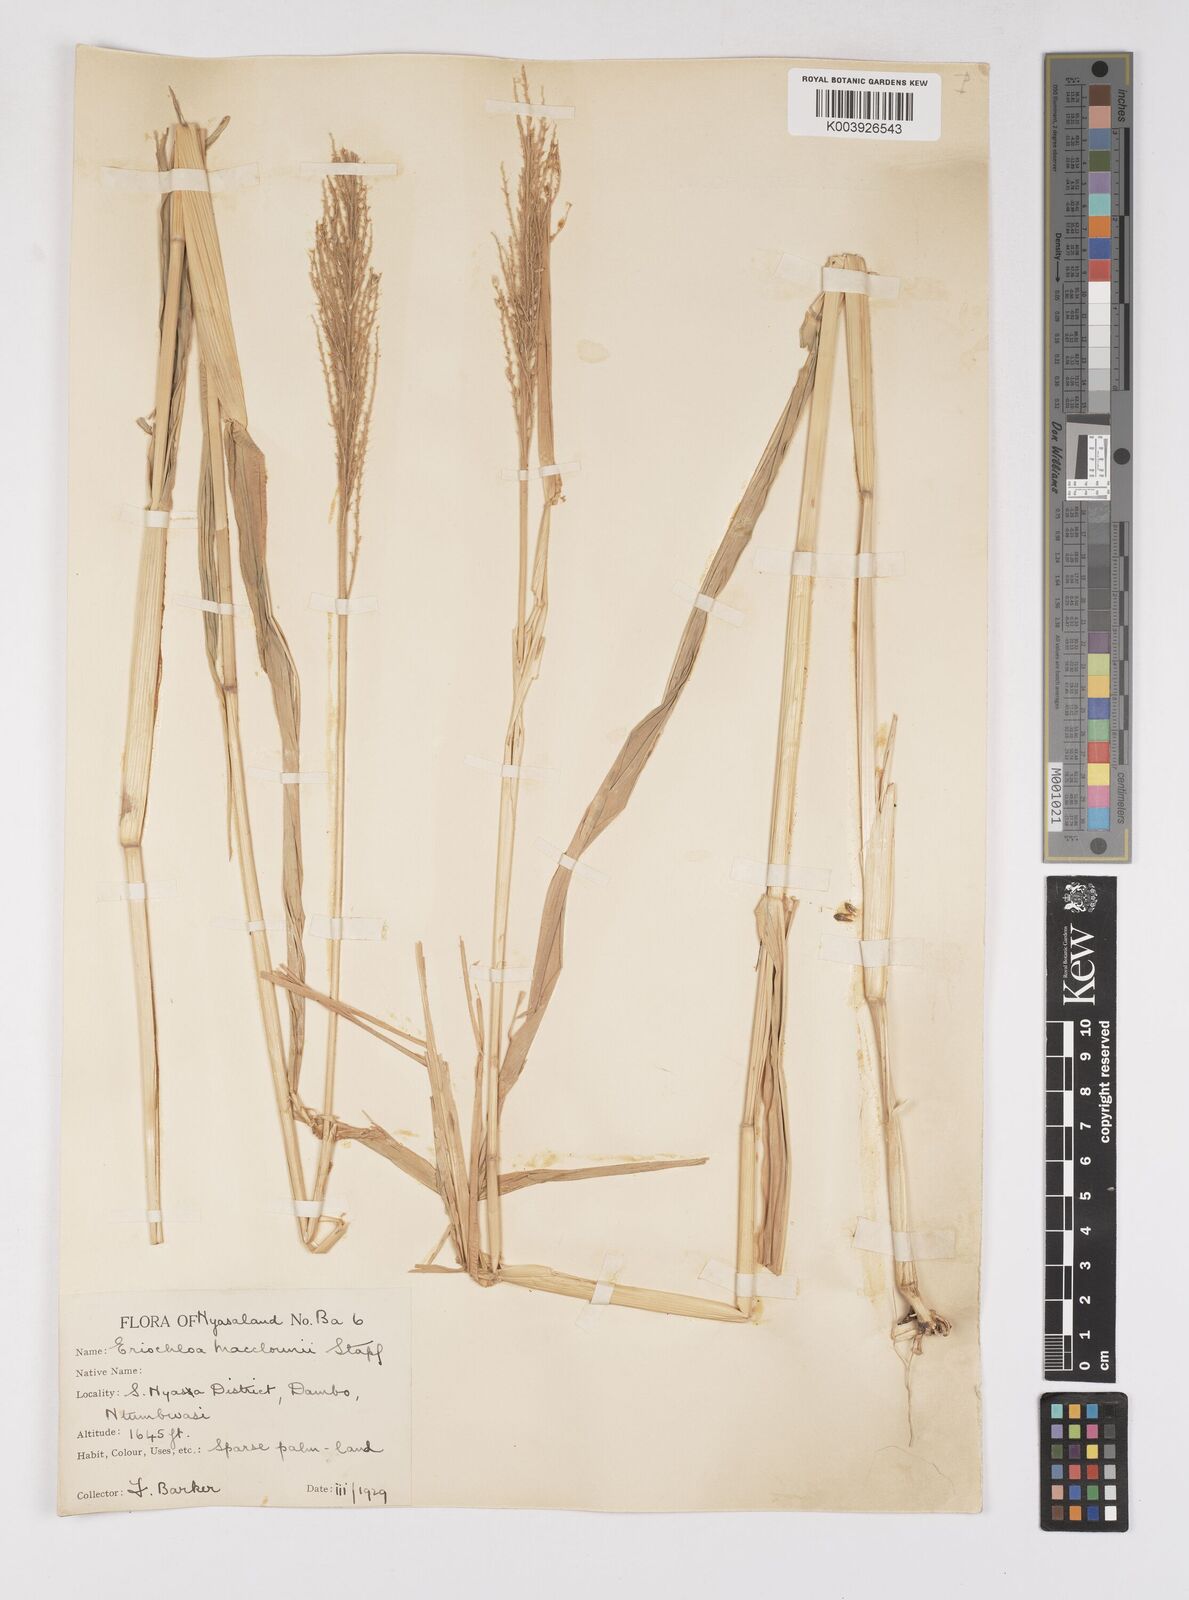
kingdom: Plantae
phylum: Tracheophyta
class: Liliopsida
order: Poales
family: Poaceae
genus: Eriochloa
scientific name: Eriochloa macclounii
